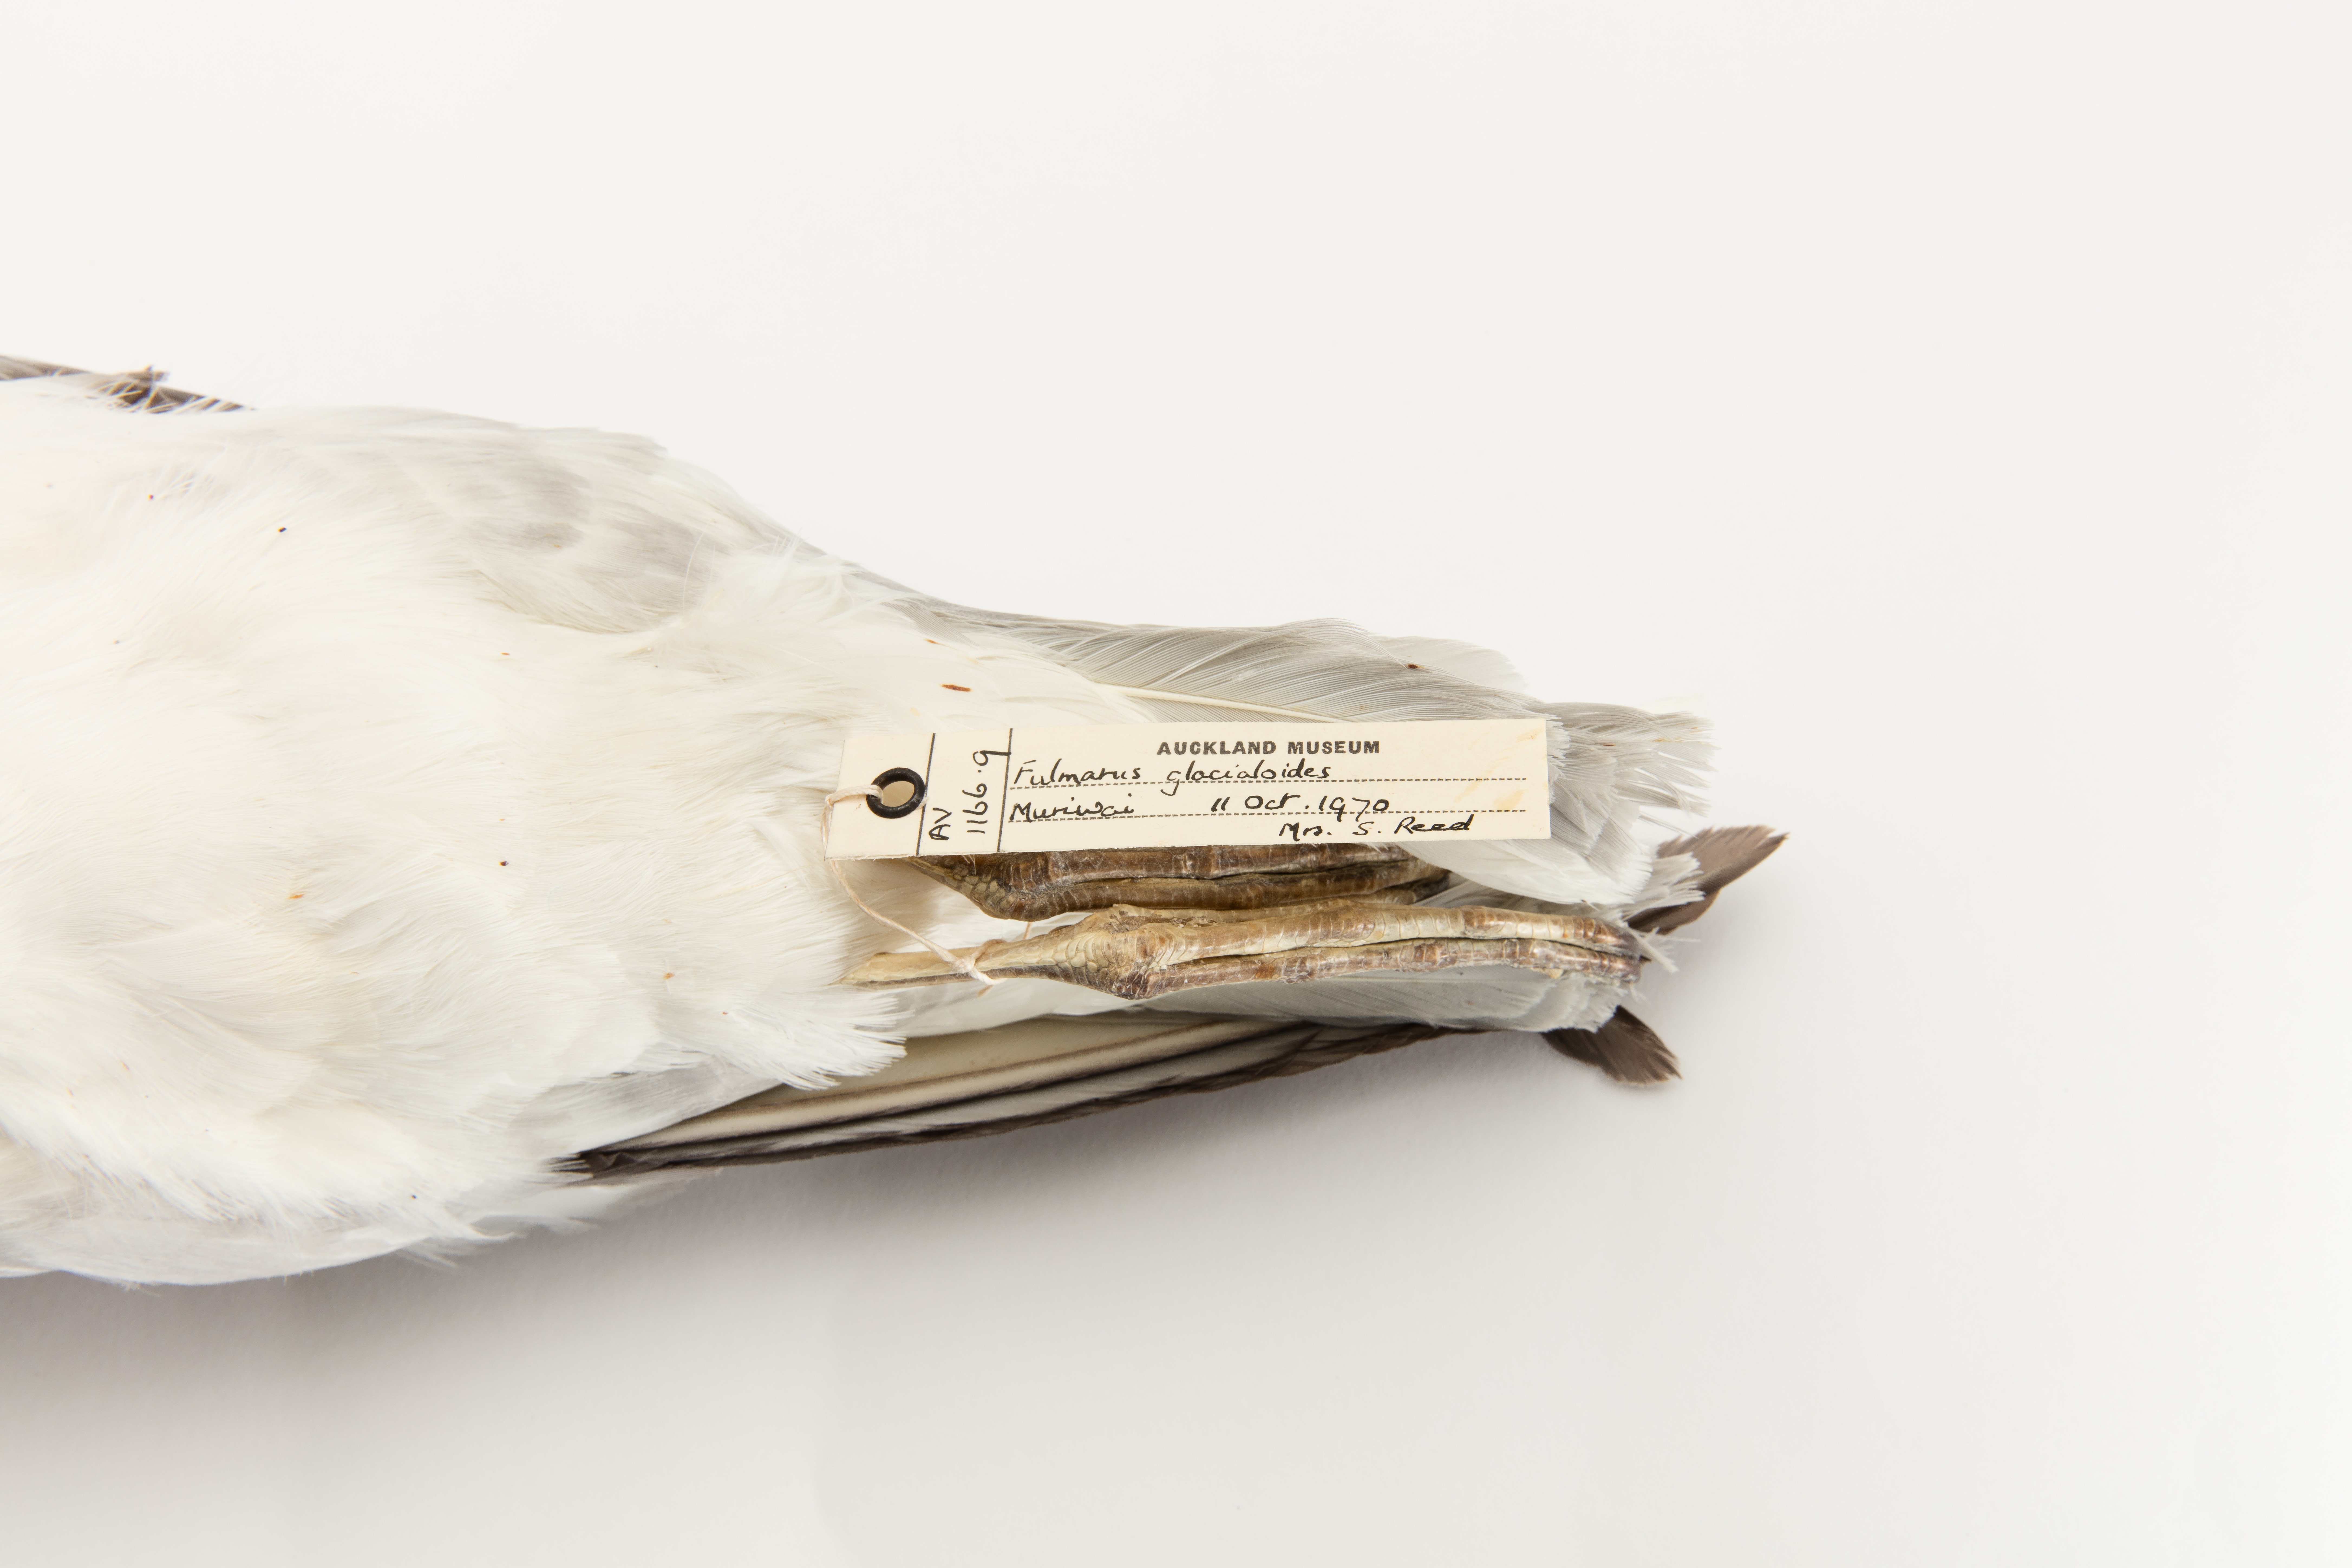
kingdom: Animalia
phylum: Chordata
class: Aves
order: Procellariiformes
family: Procellariidae
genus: Fulmarus
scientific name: Fulmarus glacialoides
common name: Southern fulmar
